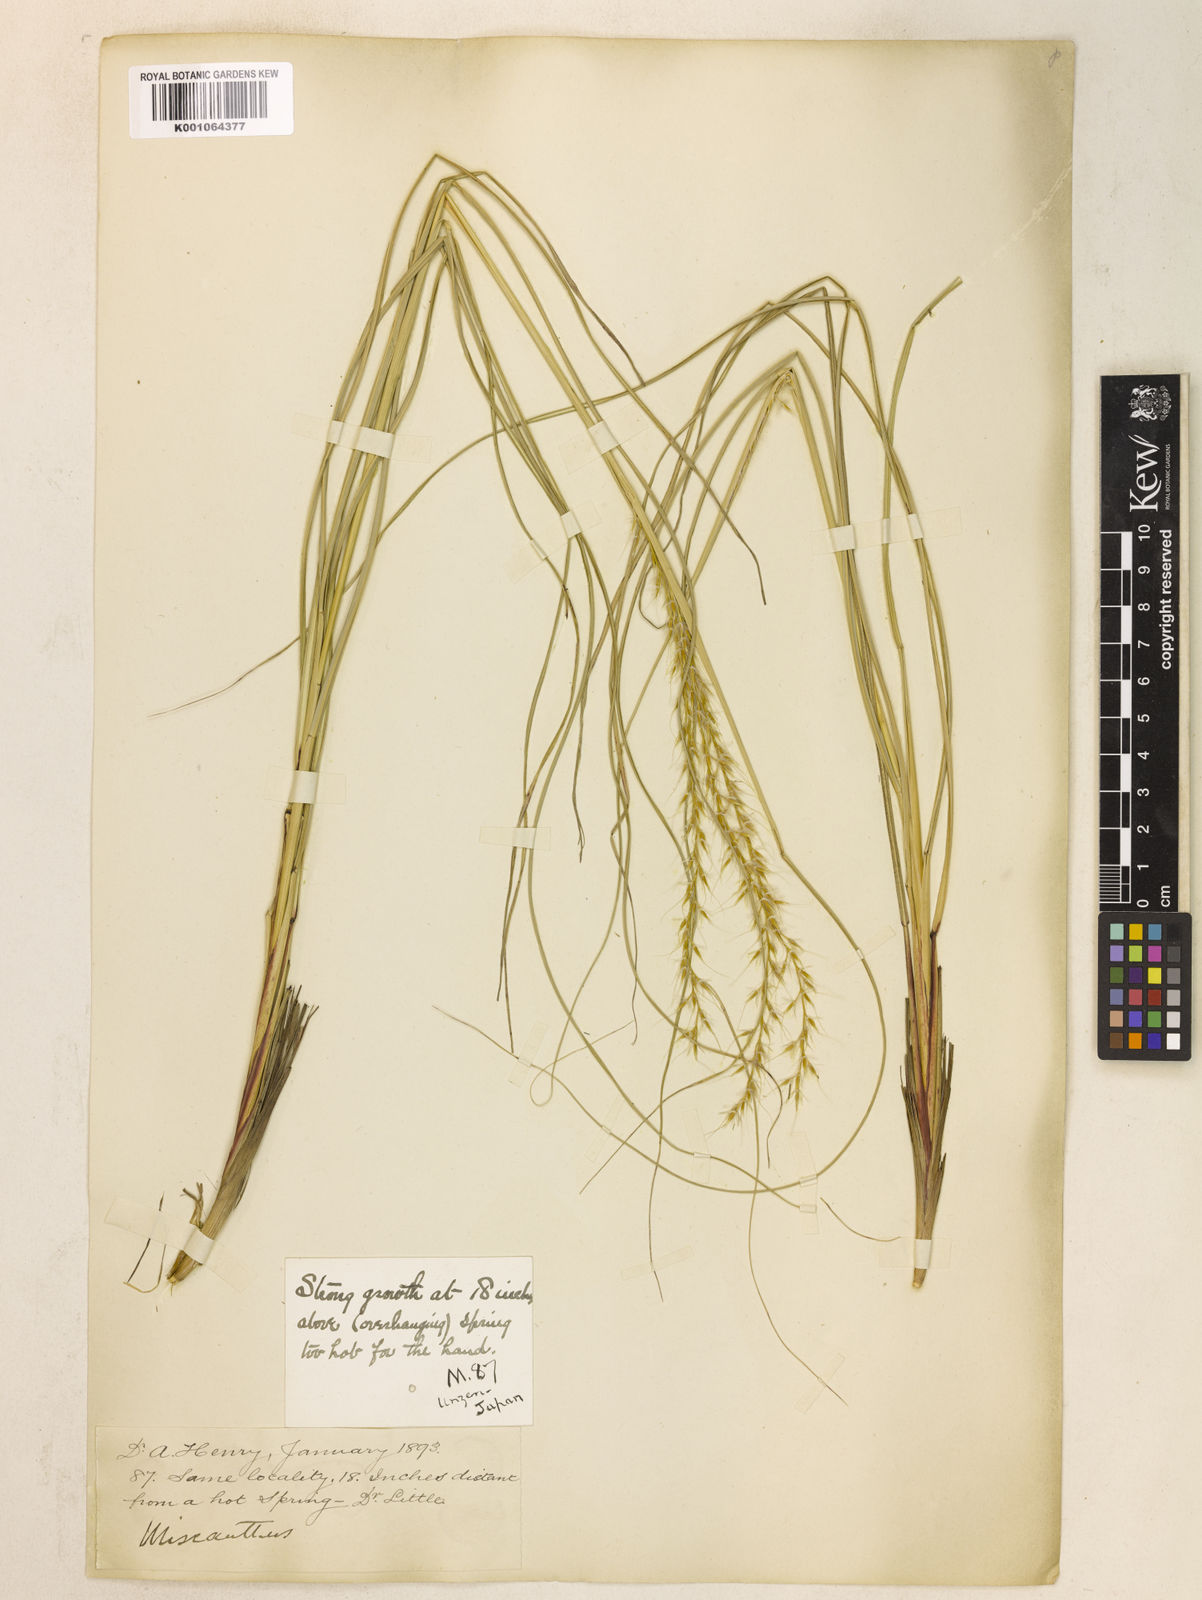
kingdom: Plantae
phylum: Tracheophyta
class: Liliopsida
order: Poales
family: Poaceae
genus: Miscanthus
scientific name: Miscanthus sinensis
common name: Chinese silvergrass
